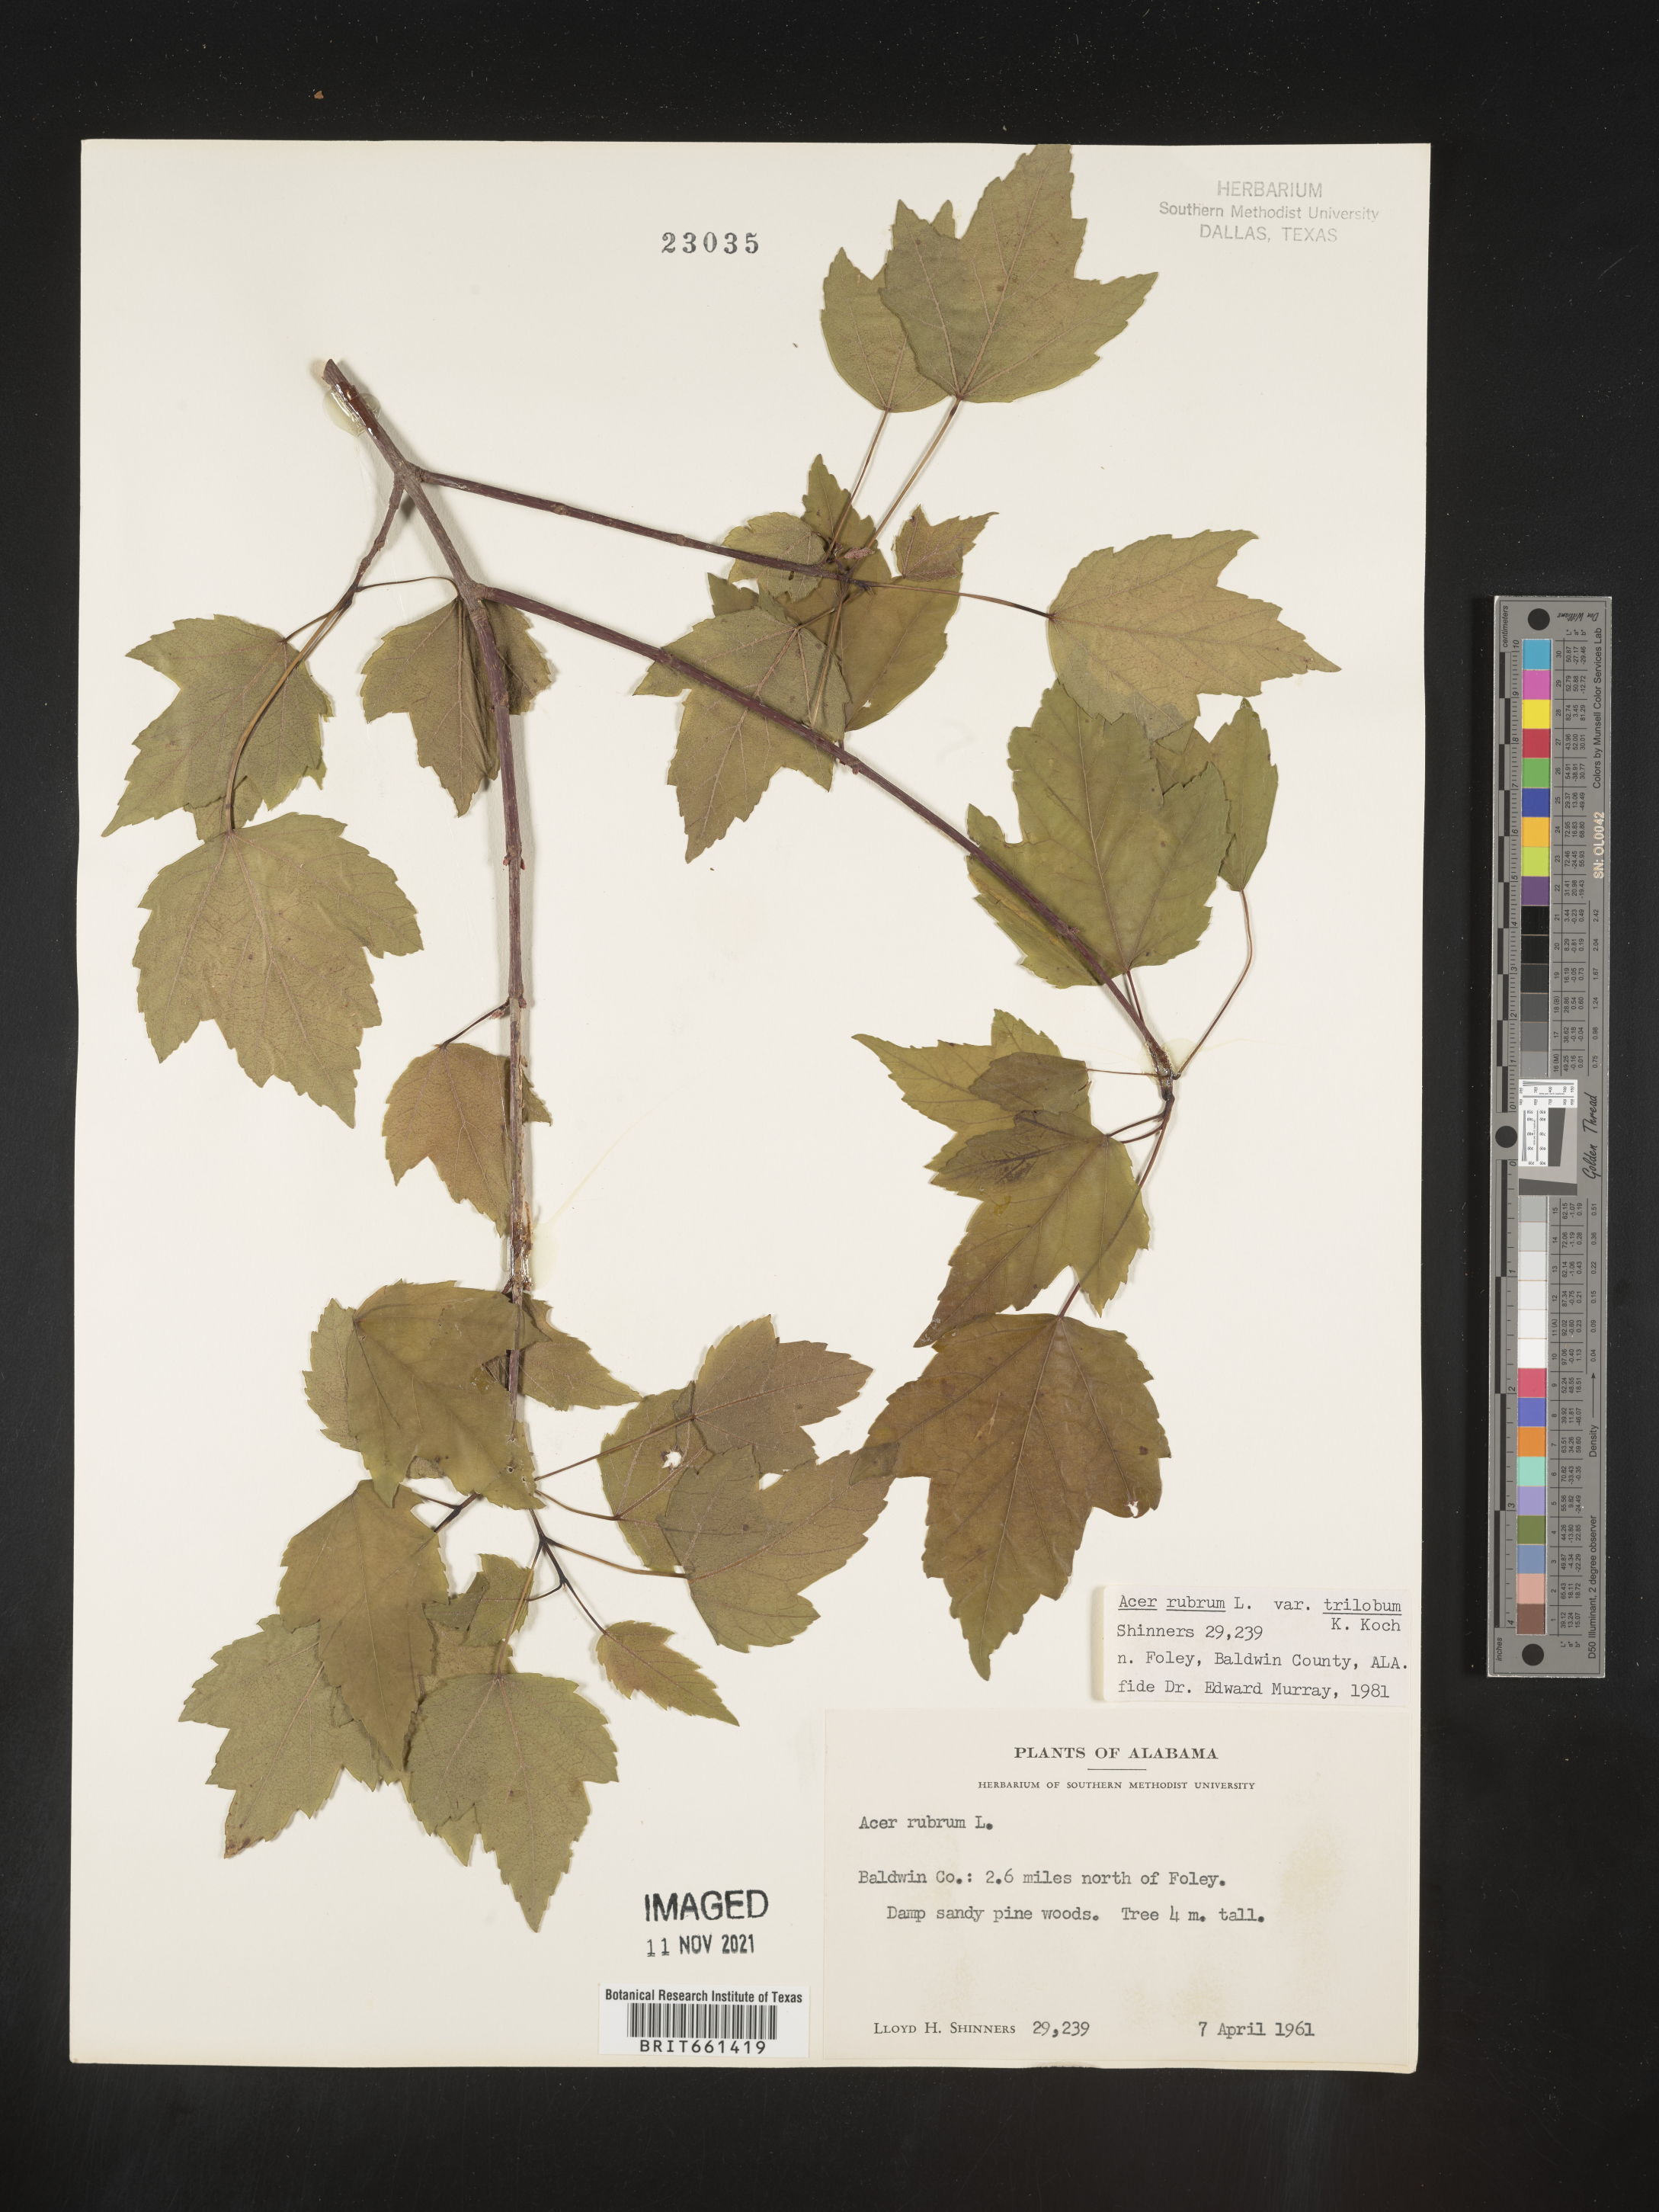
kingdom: Plantae
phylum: Tracheophyta
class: Magnoliopsida
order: Sapindales
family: Sapindaceae
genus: Acer
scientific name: Acer rubrum
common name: Red maple
